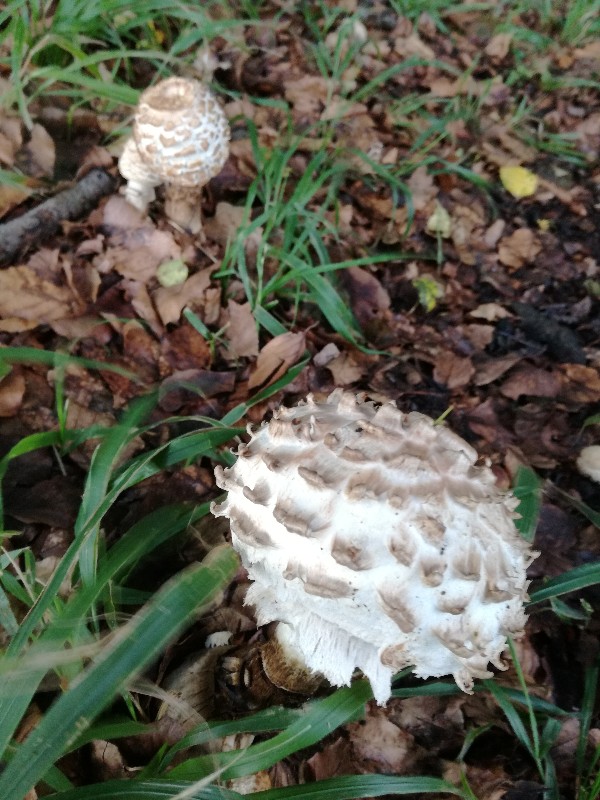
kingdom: Fungi
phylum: Basidiomycota
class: Agaricomycetes
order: Agaricales
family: Agaricaceae
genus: Chlorophyllum
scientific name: Chlorophyllum rhacodes
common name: ægte rabarberhat
